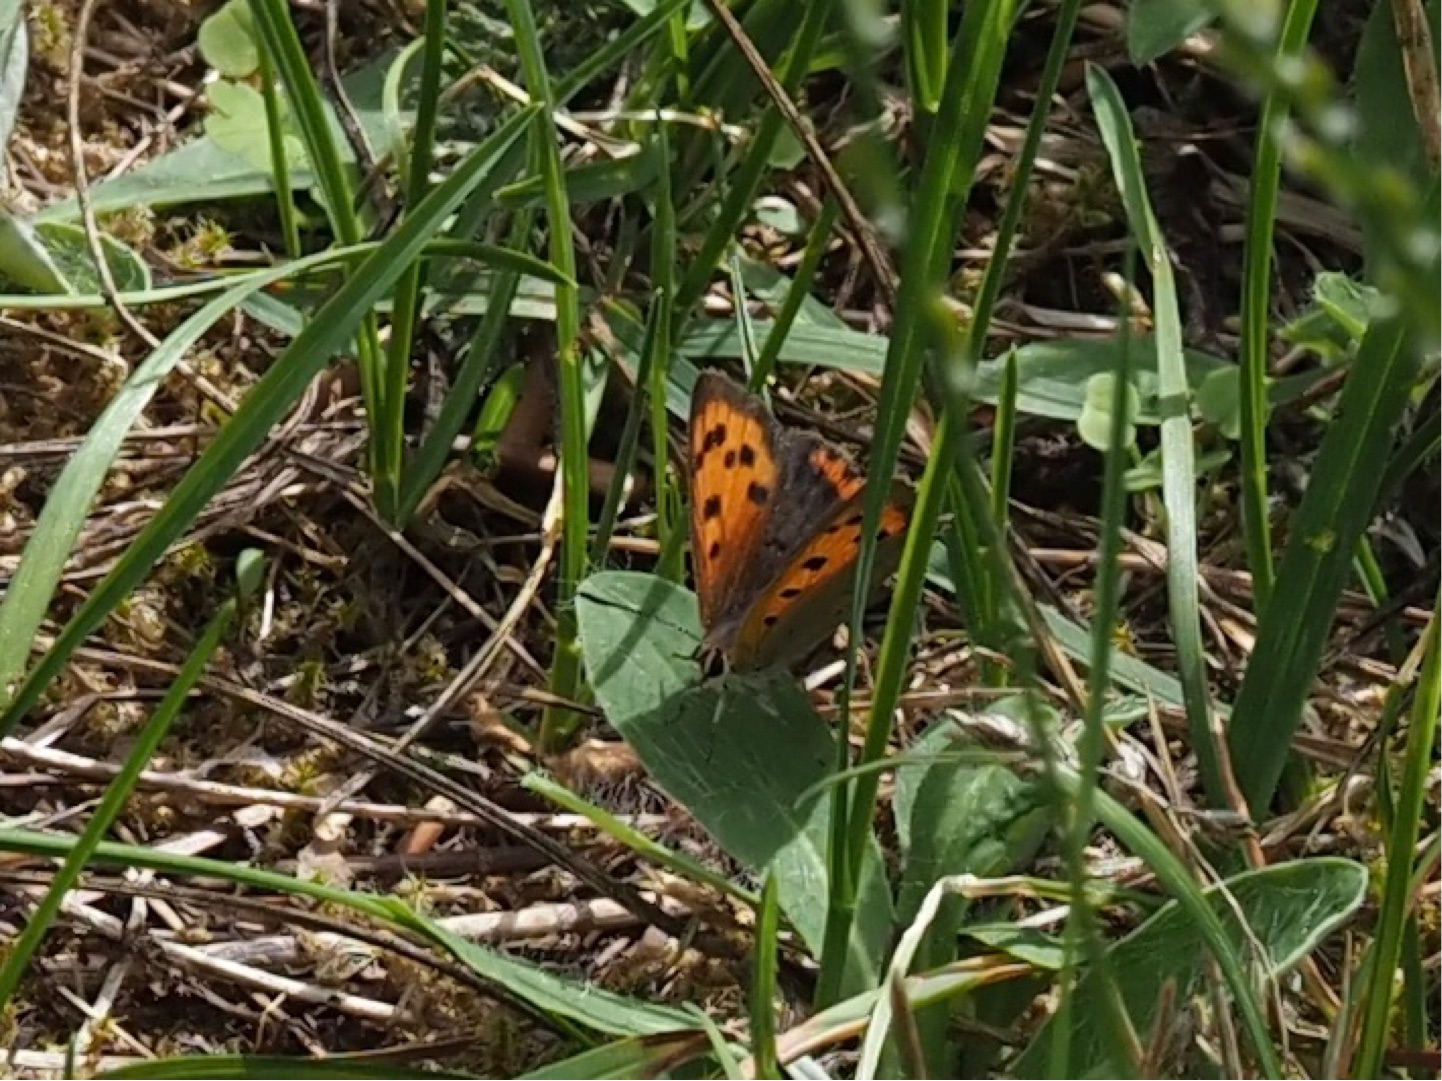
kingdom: Animalia
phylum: Arthropoda
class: Insecta
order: Lepidoptera
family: Lycaenidae
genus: Lycaena
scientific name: Lycaena phlaeas
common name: Lille ildfugl
